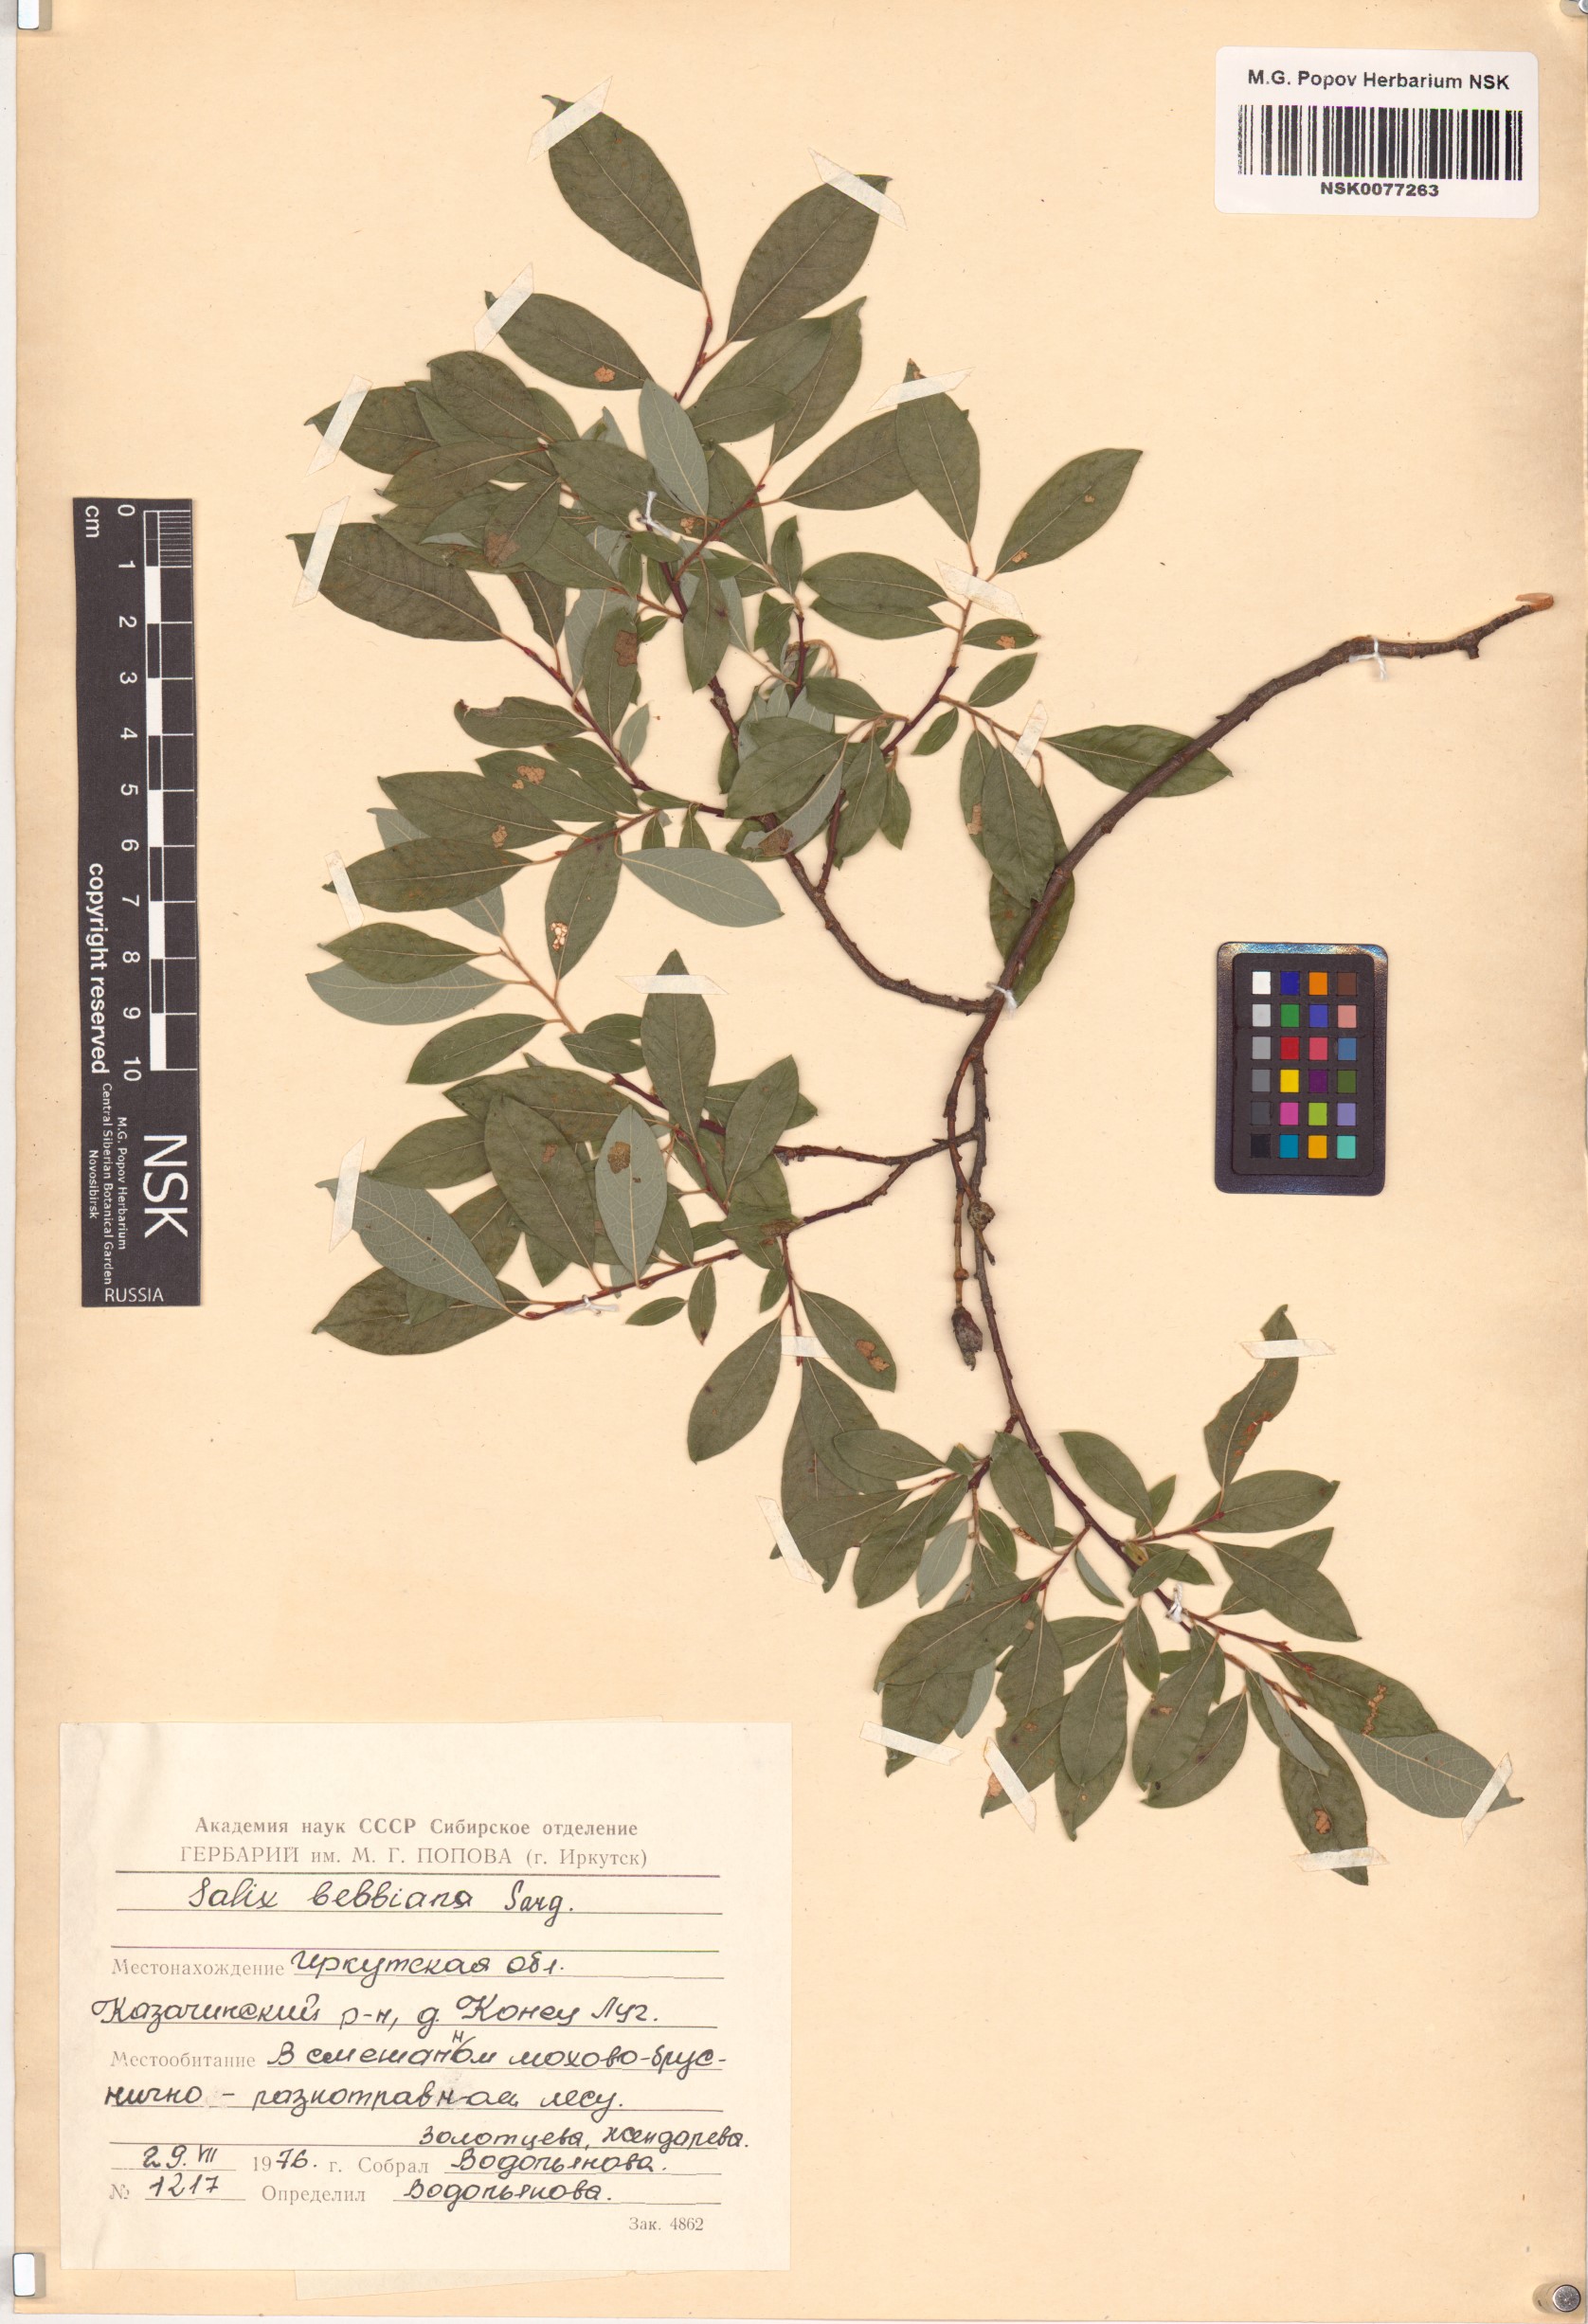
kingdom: Plantae
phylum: Tracheophyta
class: Magnoliopsida
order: Malpighiales
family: Salicaceae
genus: Salix
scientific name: Salix bebbiana
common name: Bebb's willow
